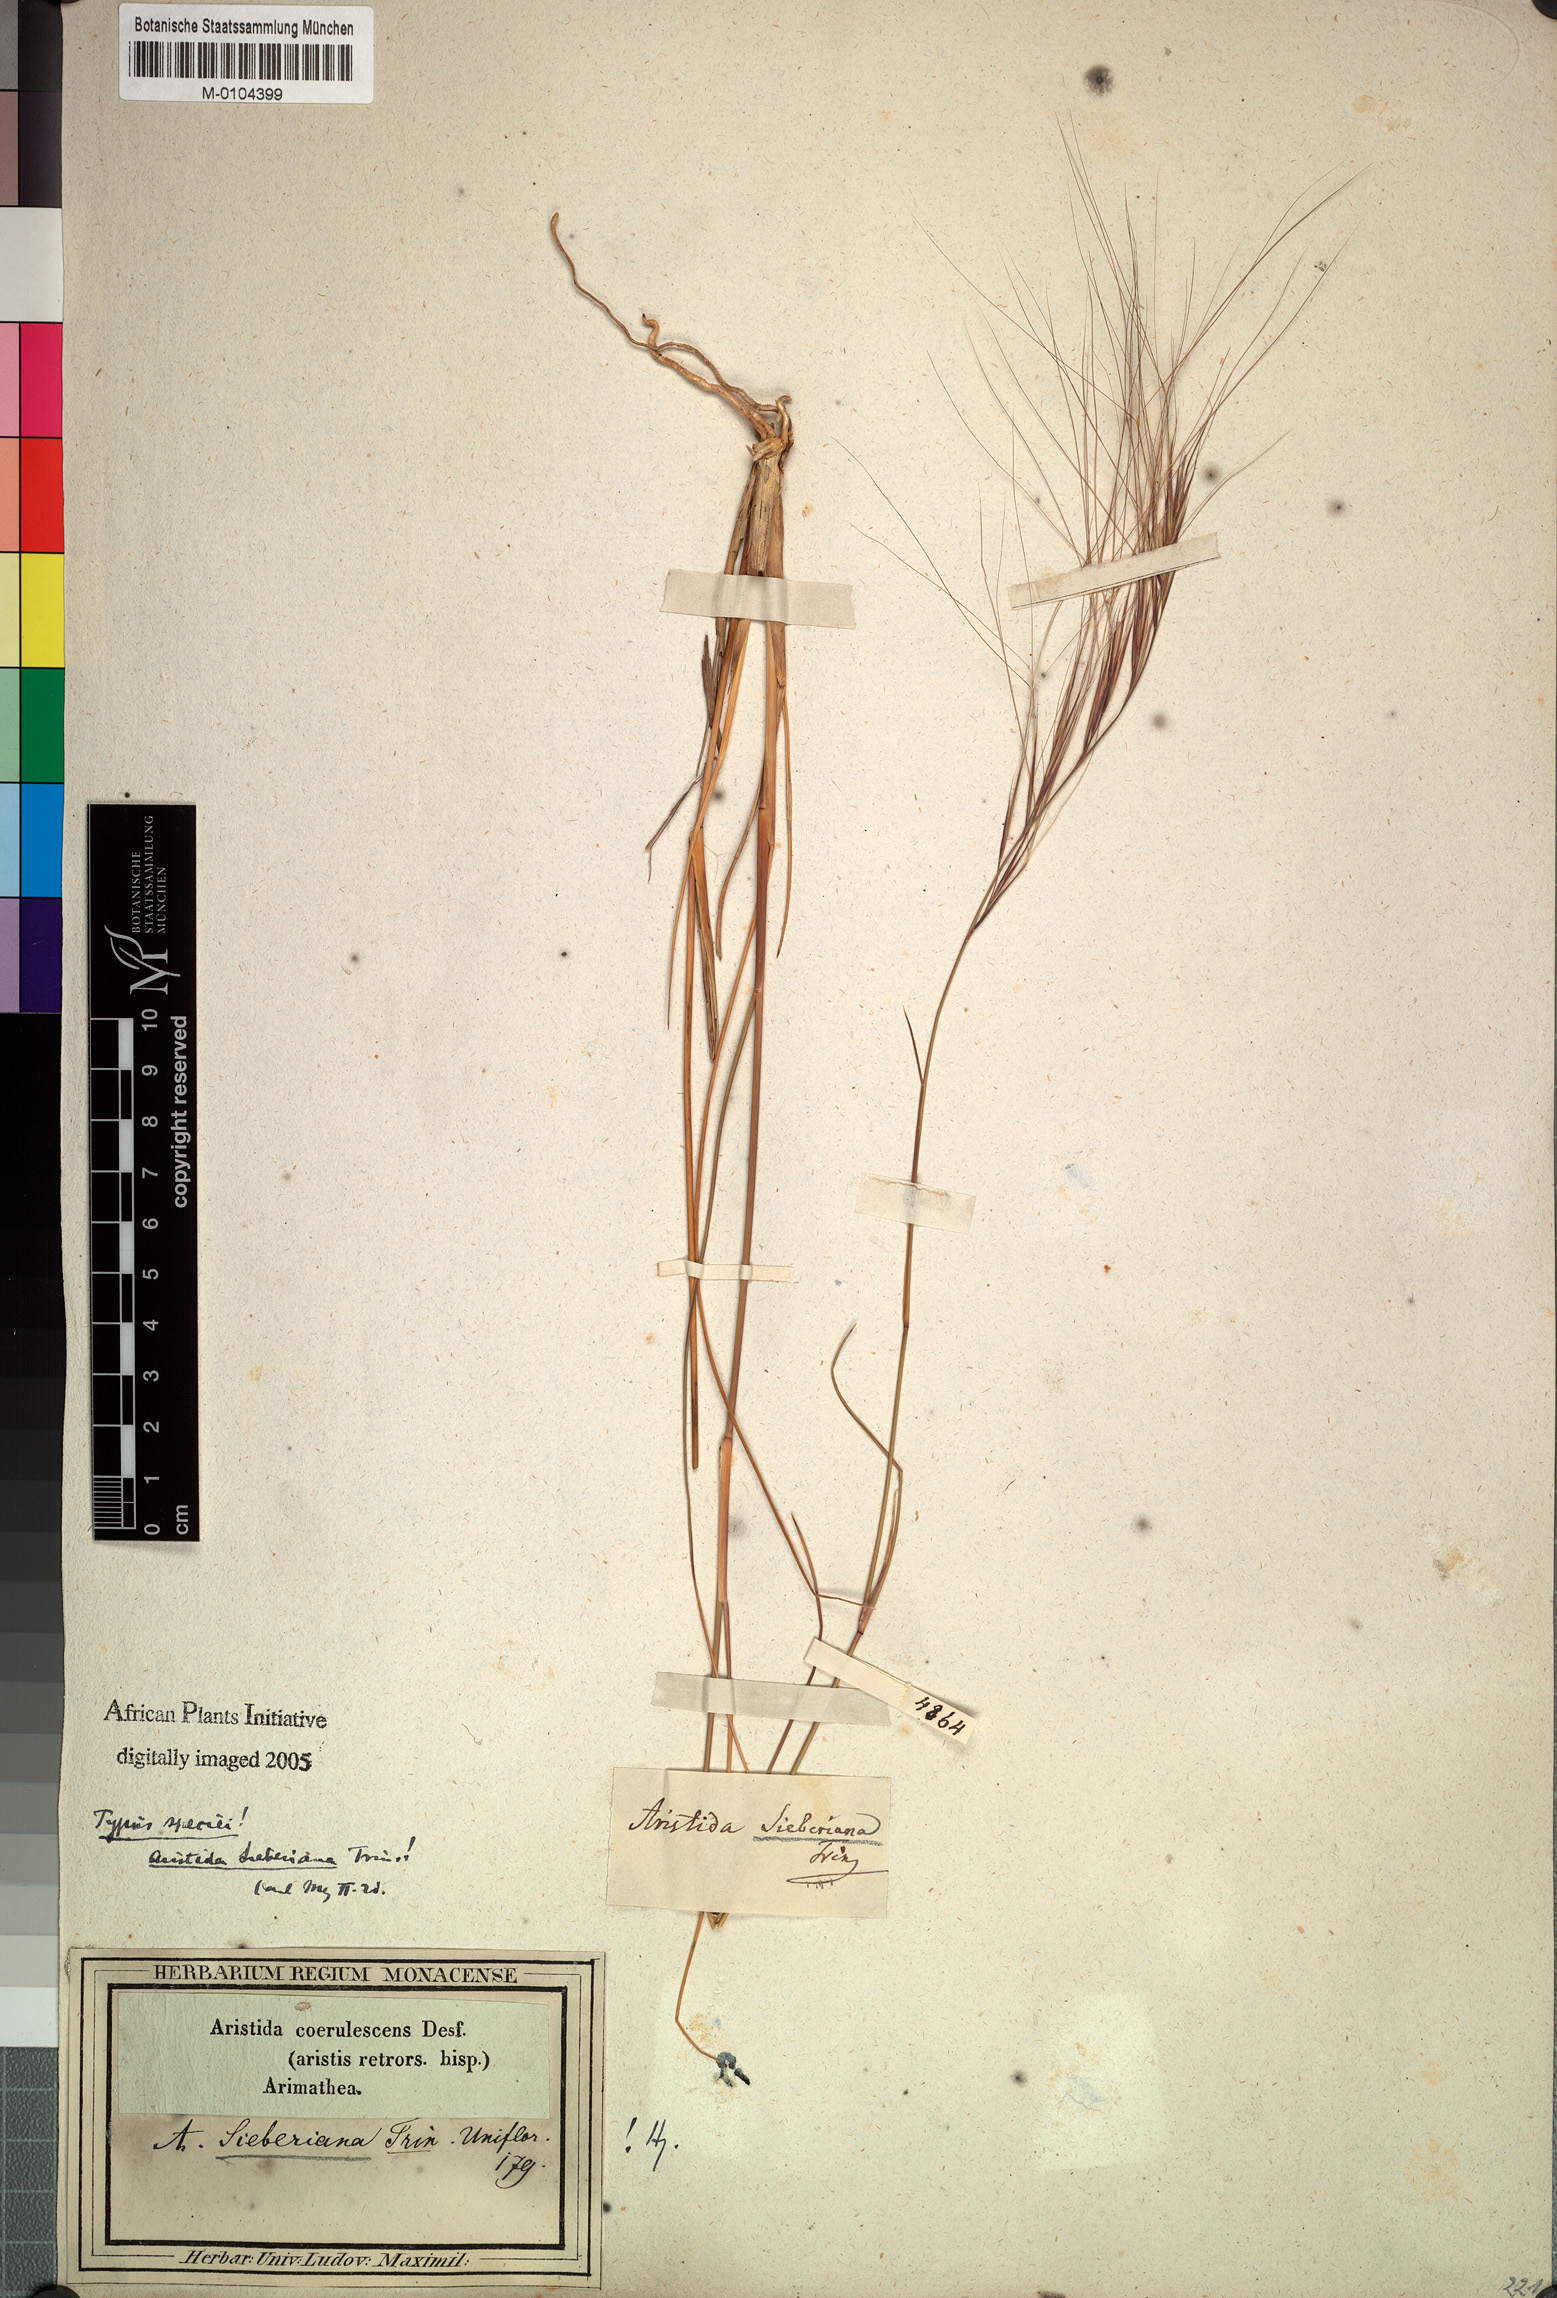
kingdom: Plantae
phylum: Tracheophyta
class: Liliopsida
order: Poales
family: Poaceae
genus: Aristida
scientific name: Aristida sieberiana
